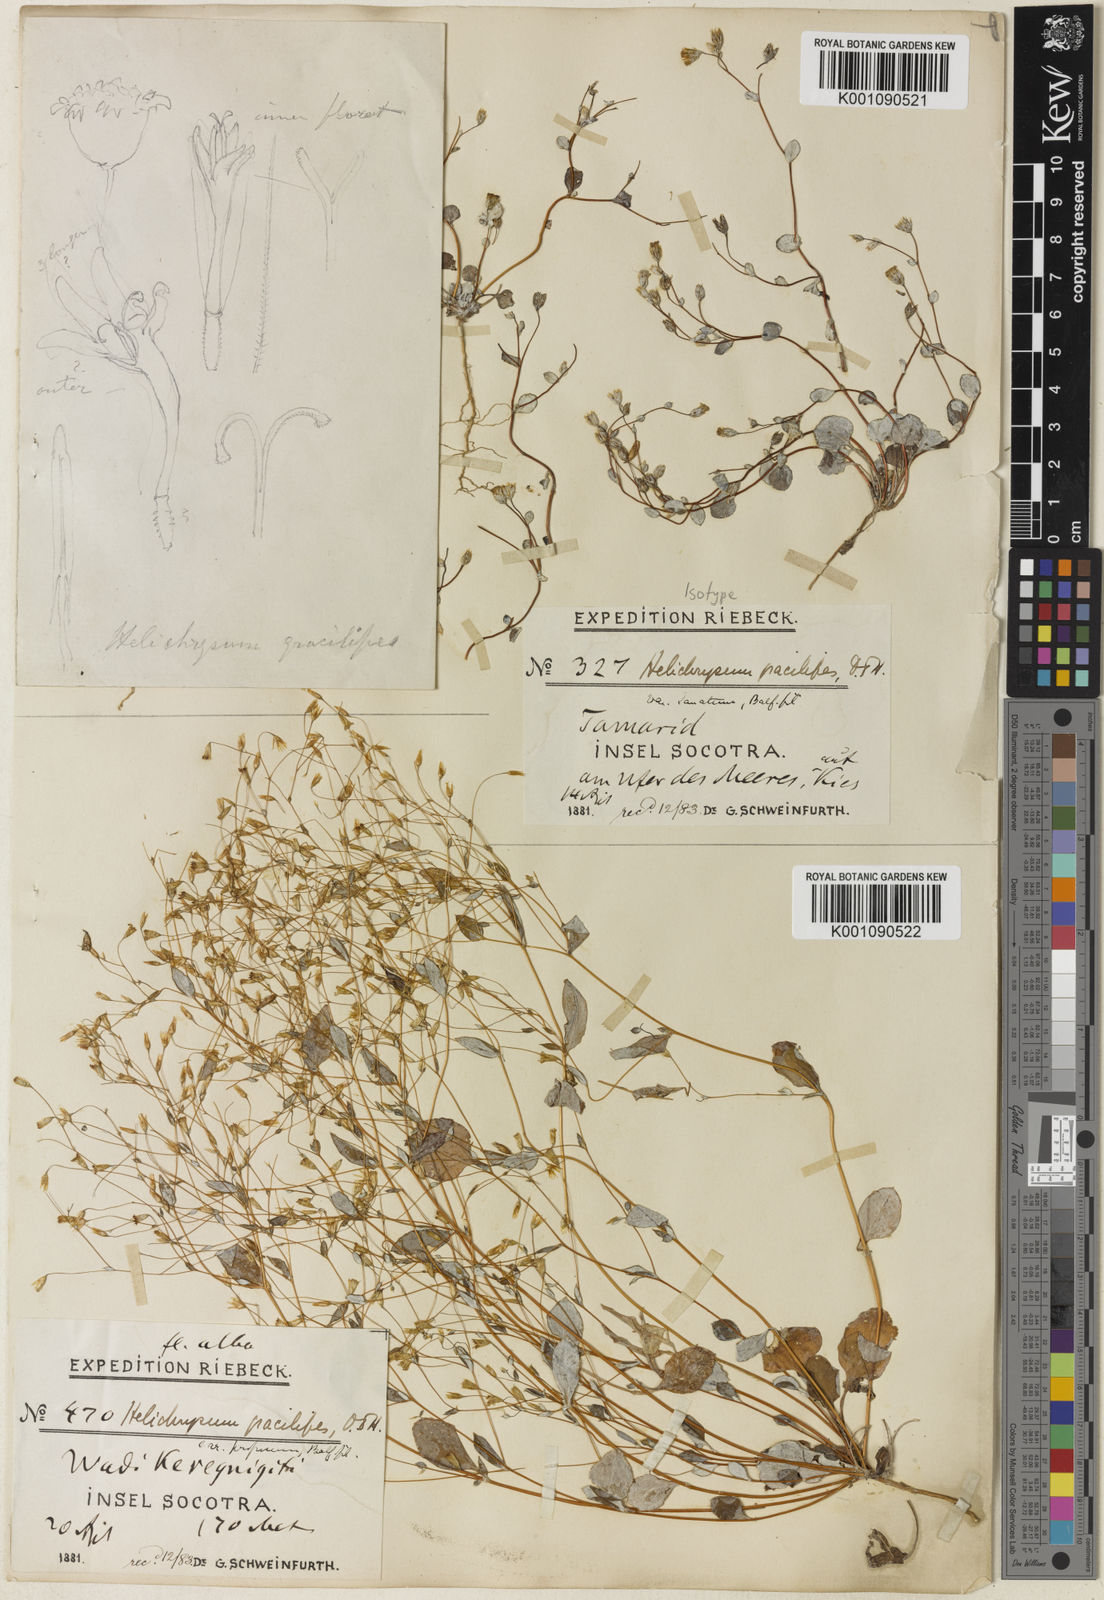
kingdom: Plantae
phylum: Tracheophyta
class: Magnoliopsida
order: Asterales
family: Asteraceae
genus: Libinhania
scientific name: Libinhania gracilipes
